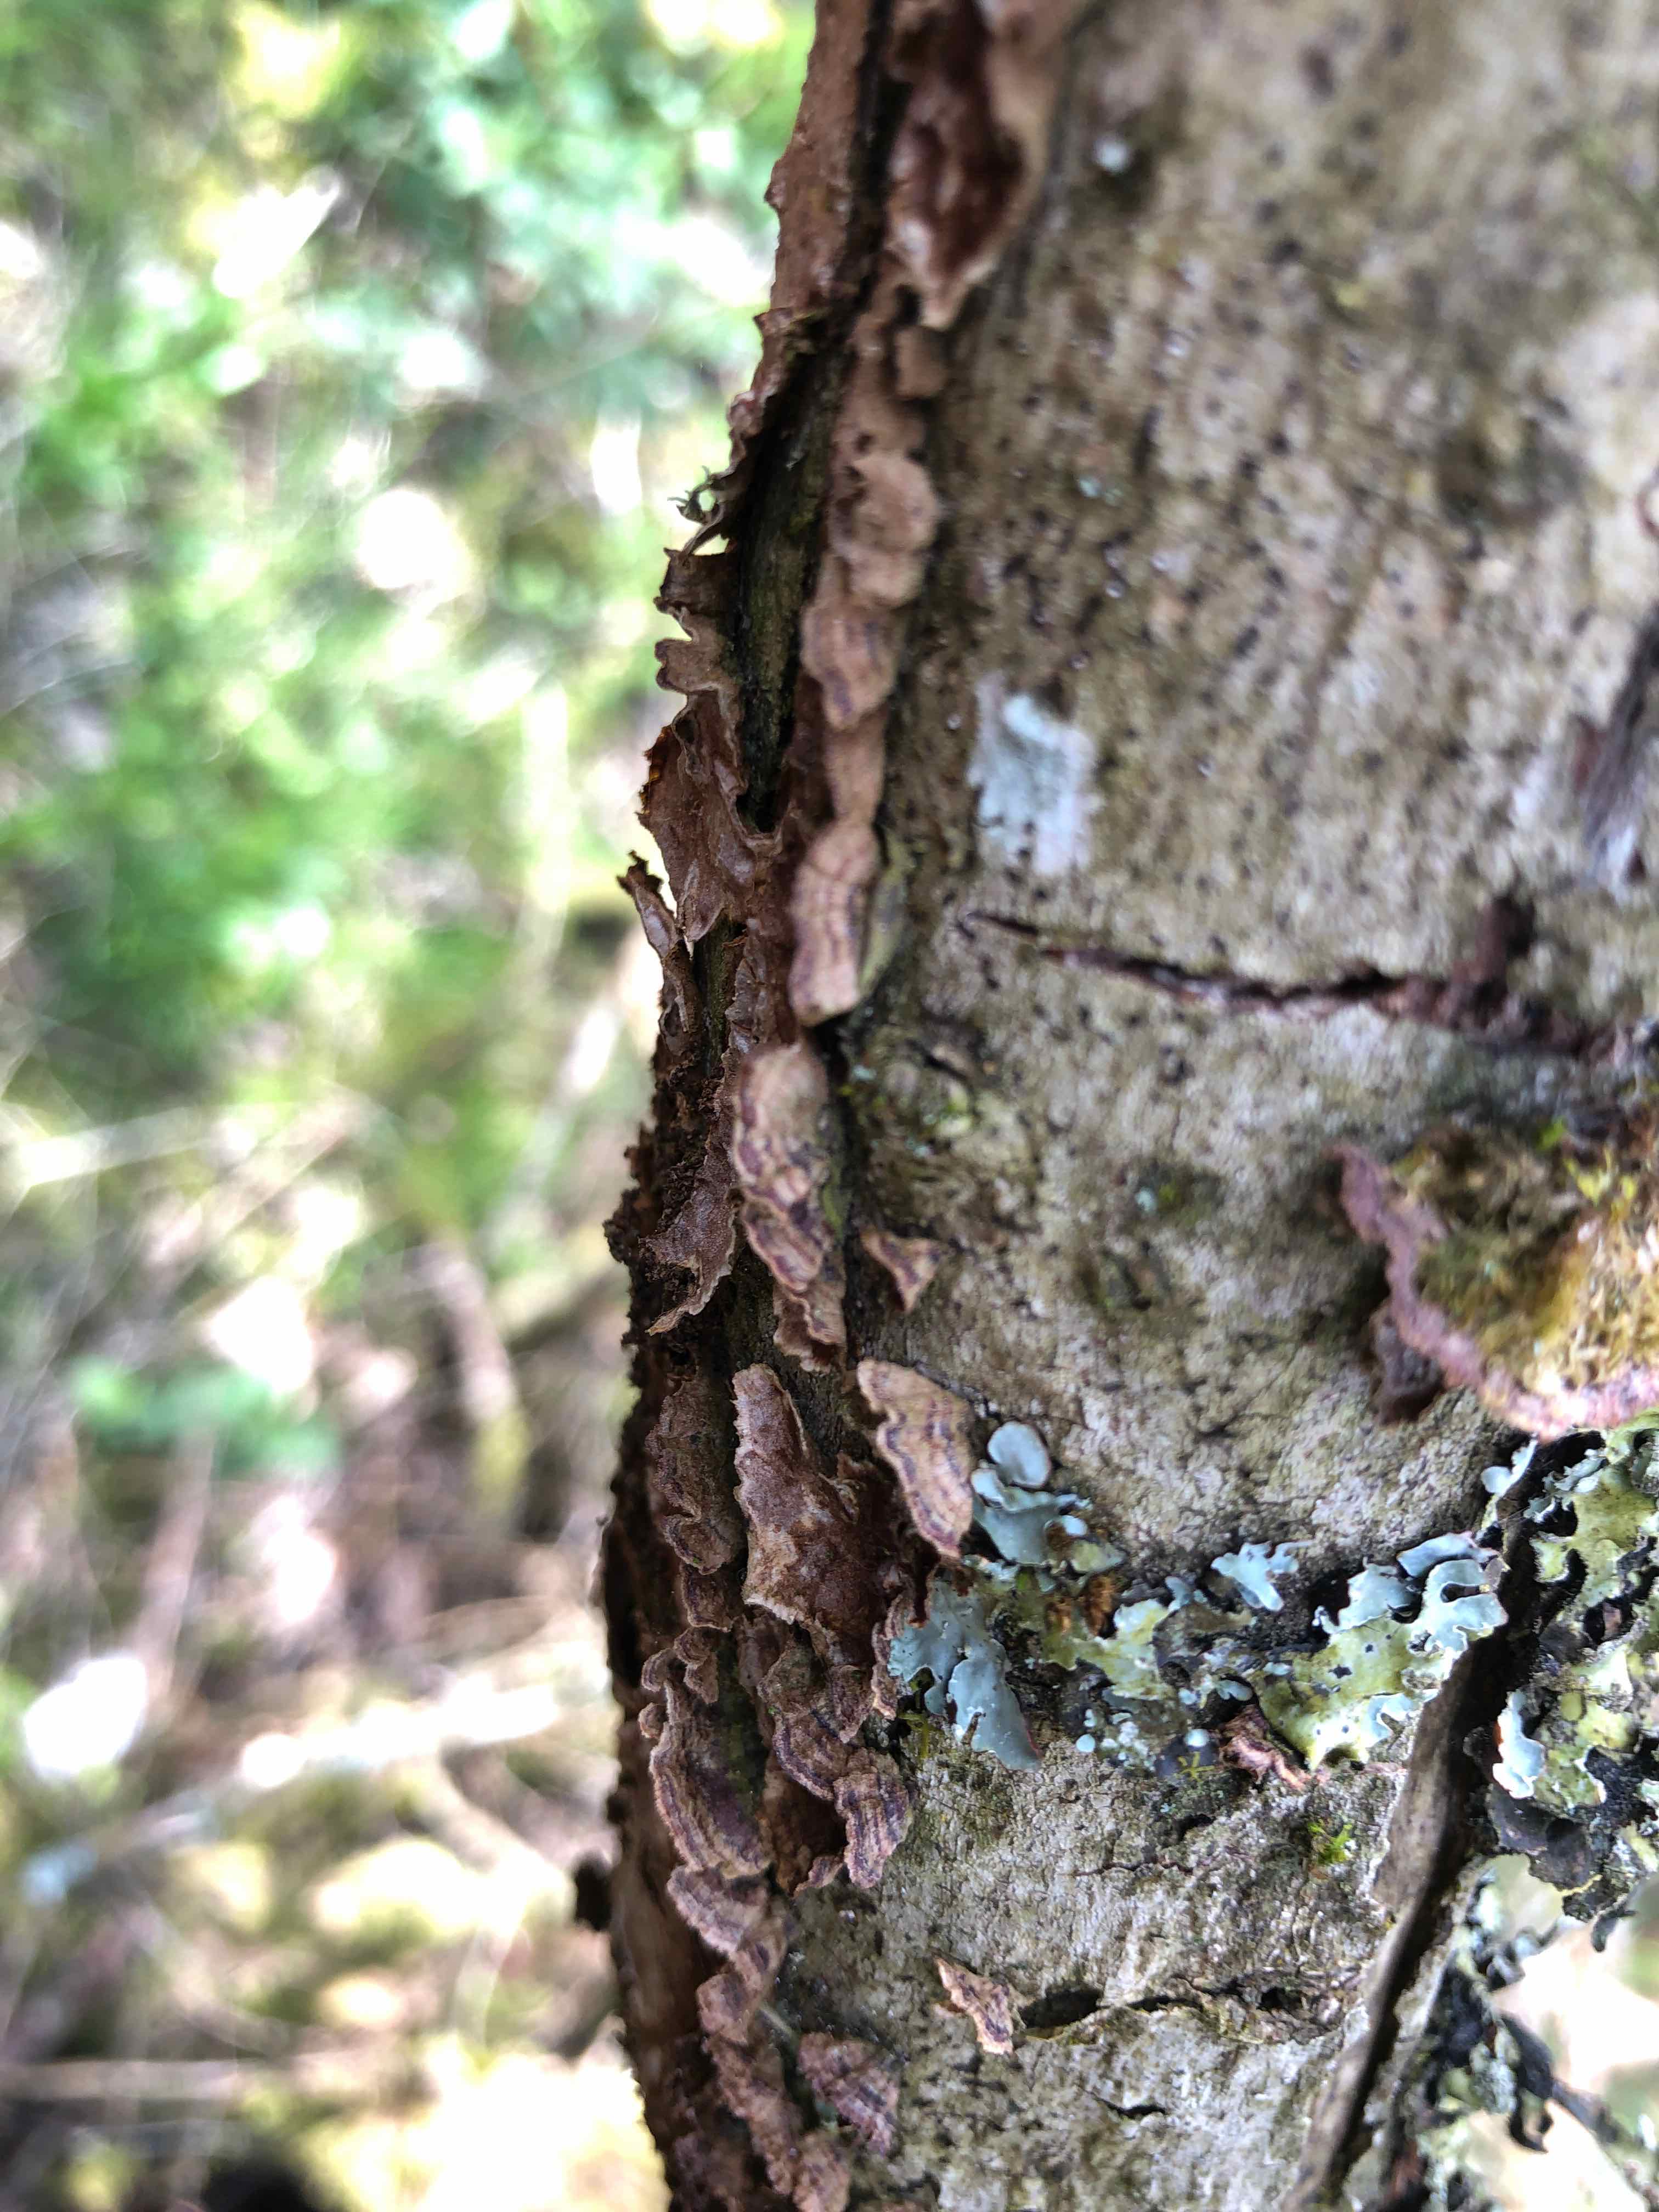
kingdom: Fungi
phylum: Basidiomycota
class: Agaricomycetes
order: Hymenochaetales
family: Hymenochaetaceae
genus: Hydnoporia
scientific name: Hydnoporia tabacina
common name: tobaksbrun ruslædersvamp
